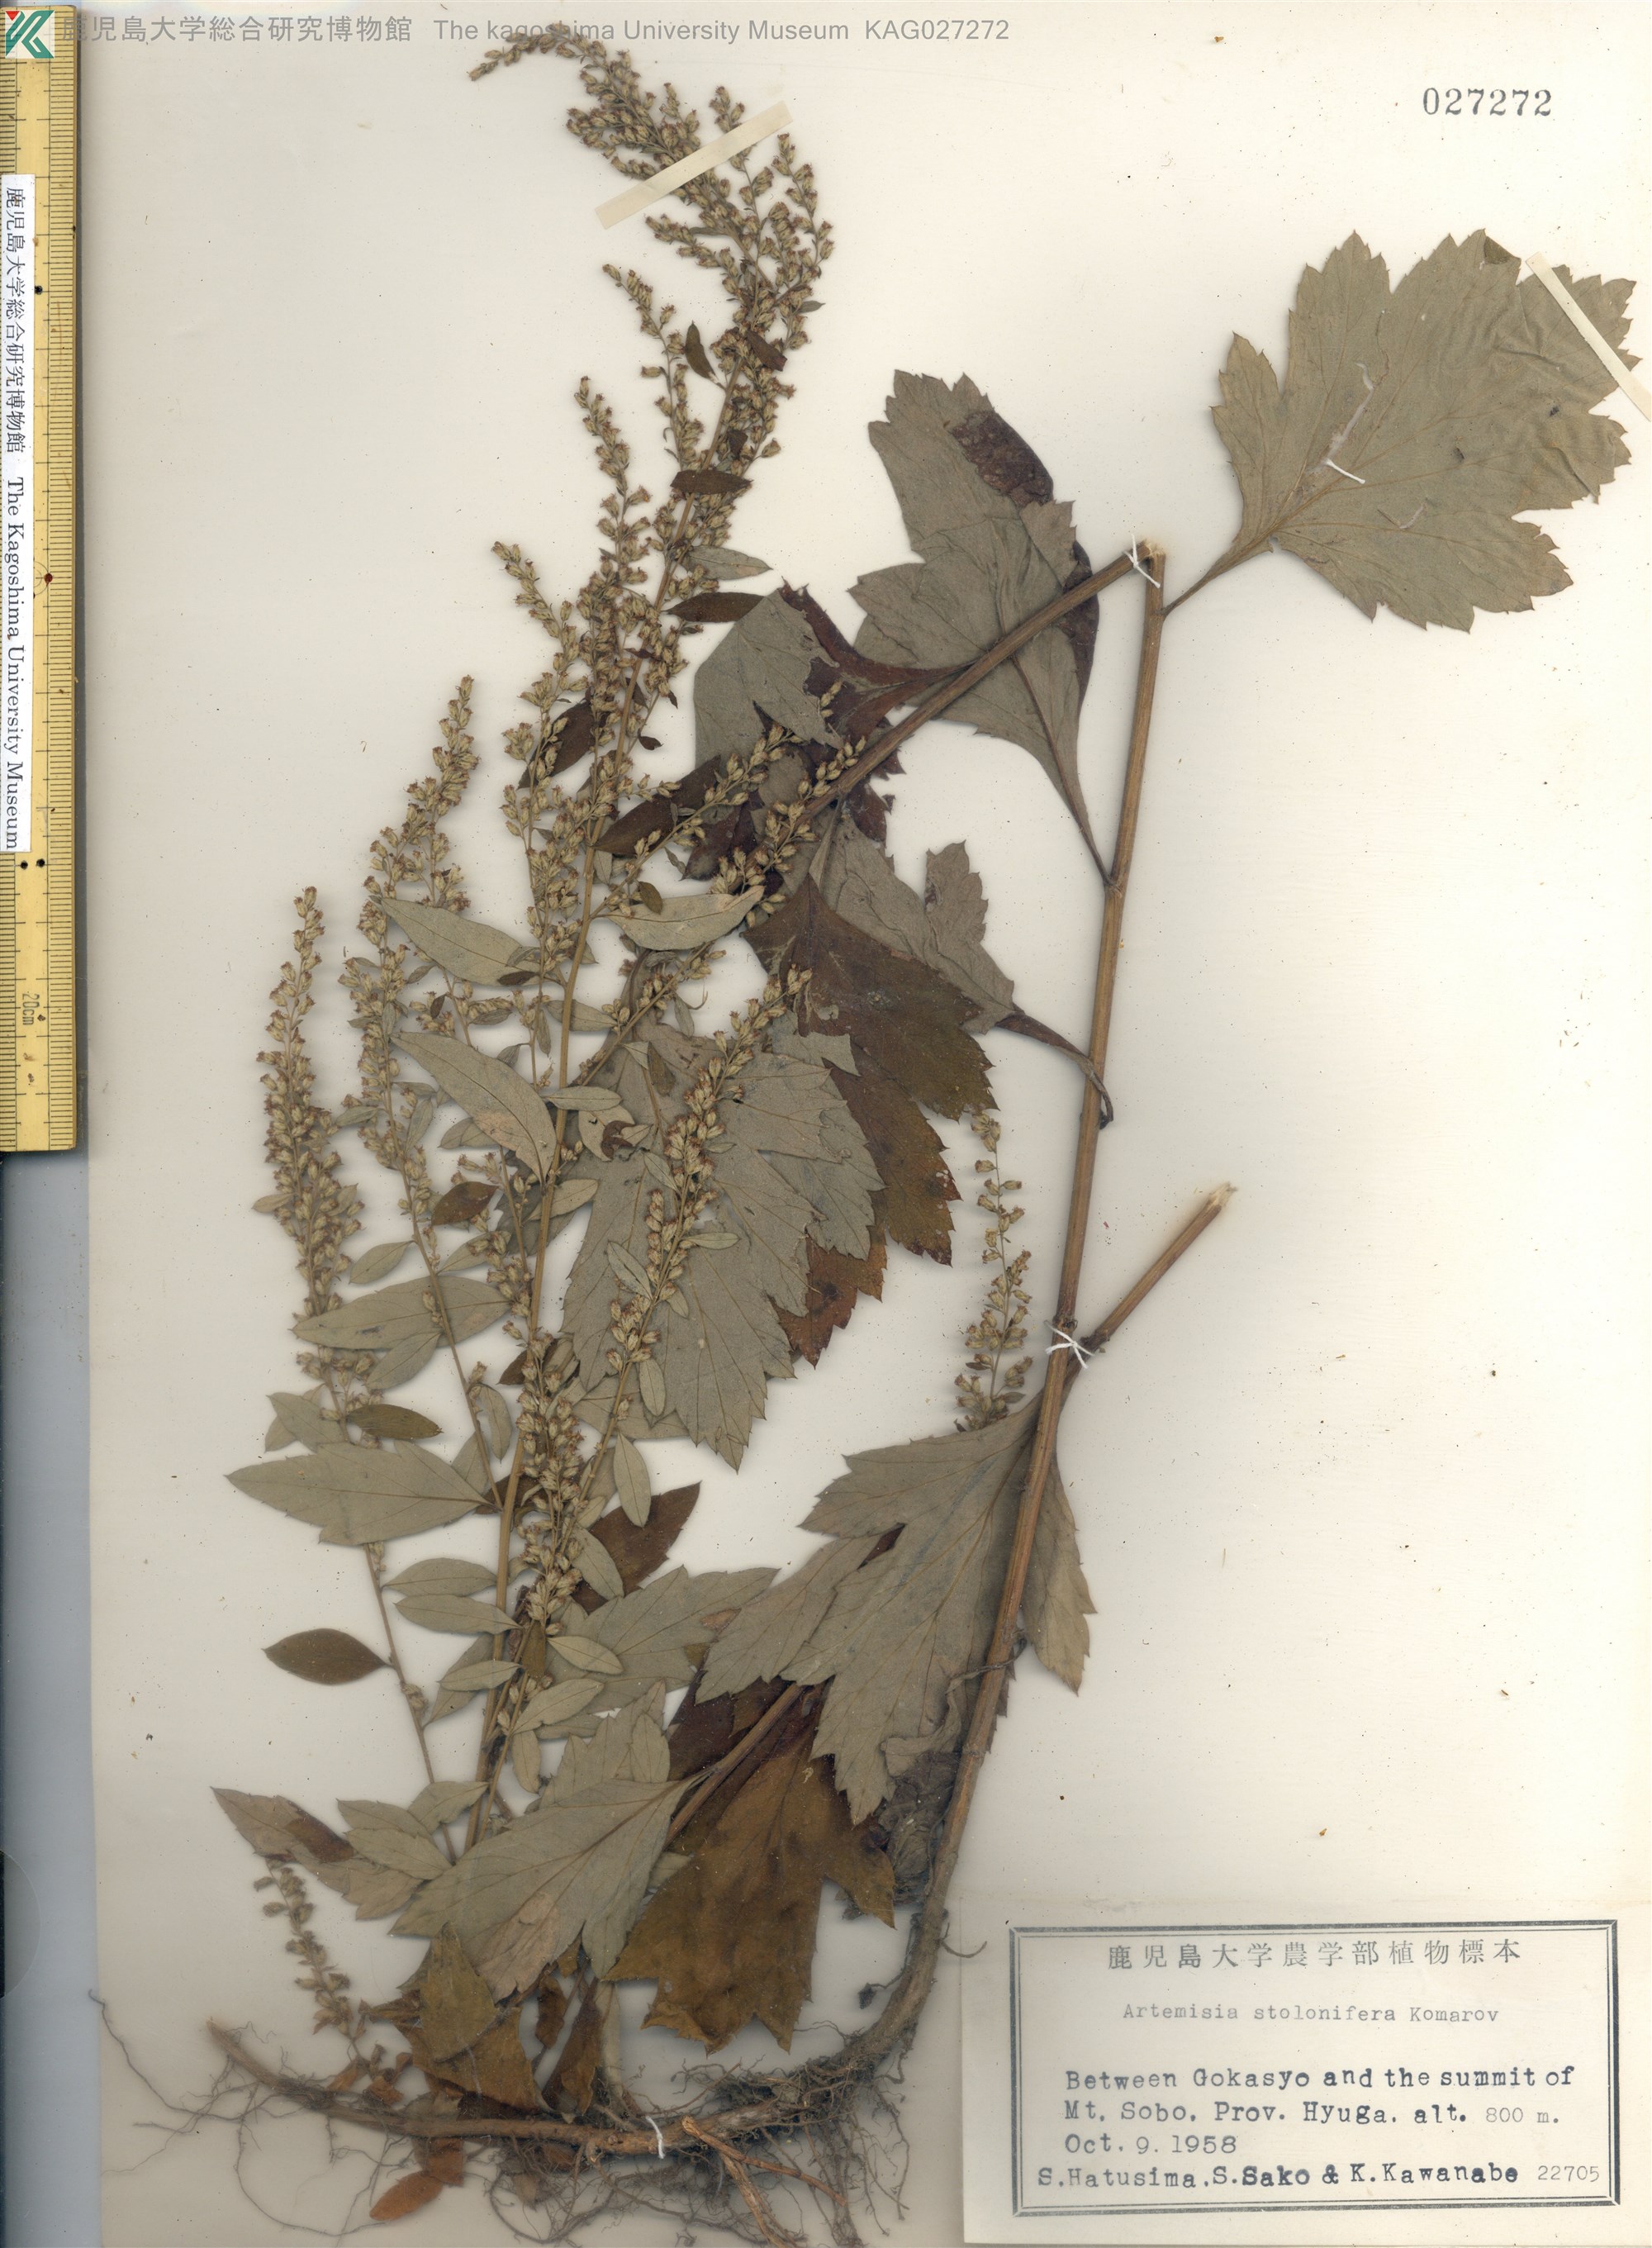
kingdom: Plantae
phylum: Tracheophyta
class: Magnoliopsida
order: Asterales
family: Asteraceae
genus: Artemisia
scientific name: Artemisia stolonifera
